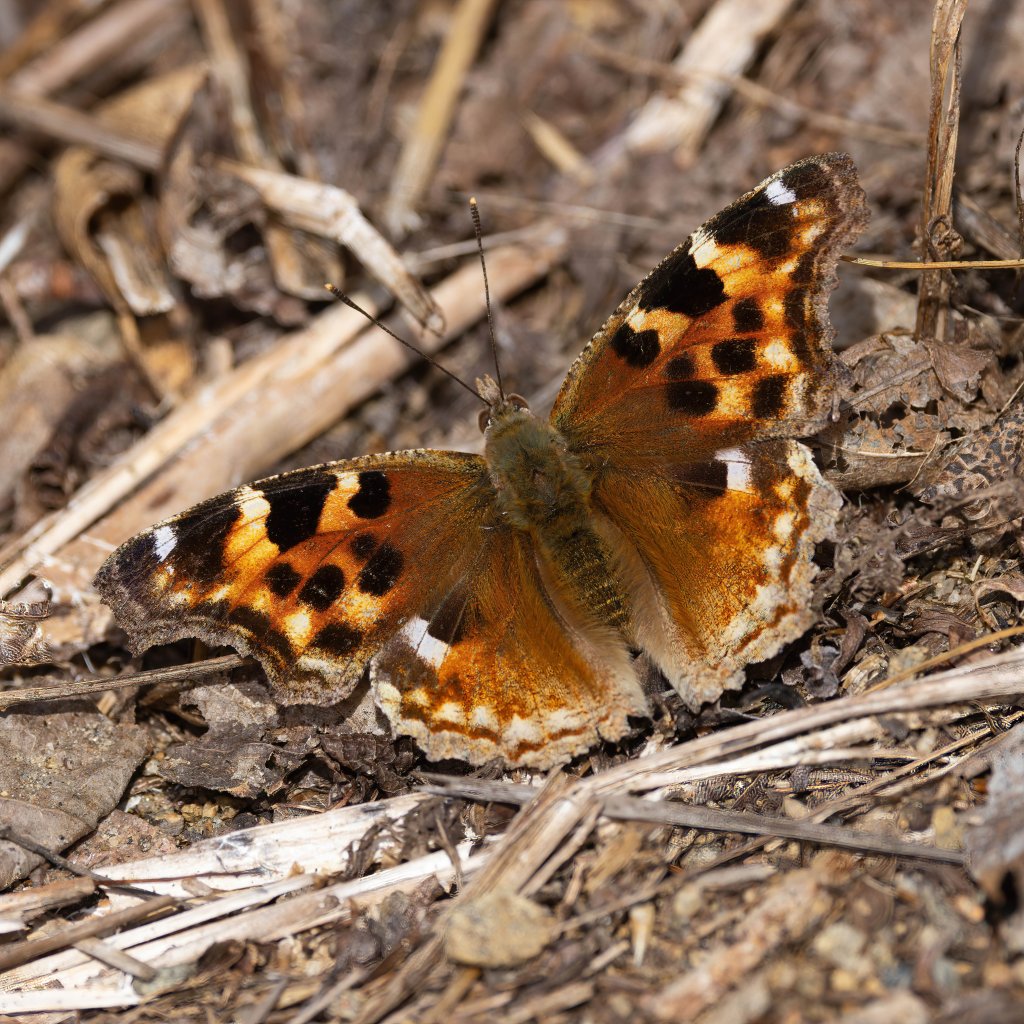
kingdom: Animalia
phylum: Arthropoda
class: Insecta
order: Lepidoptera
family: Nymphalidae
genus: Polygonia
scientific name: Polygonia vaualbum
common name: Compton Tortoiseshell
